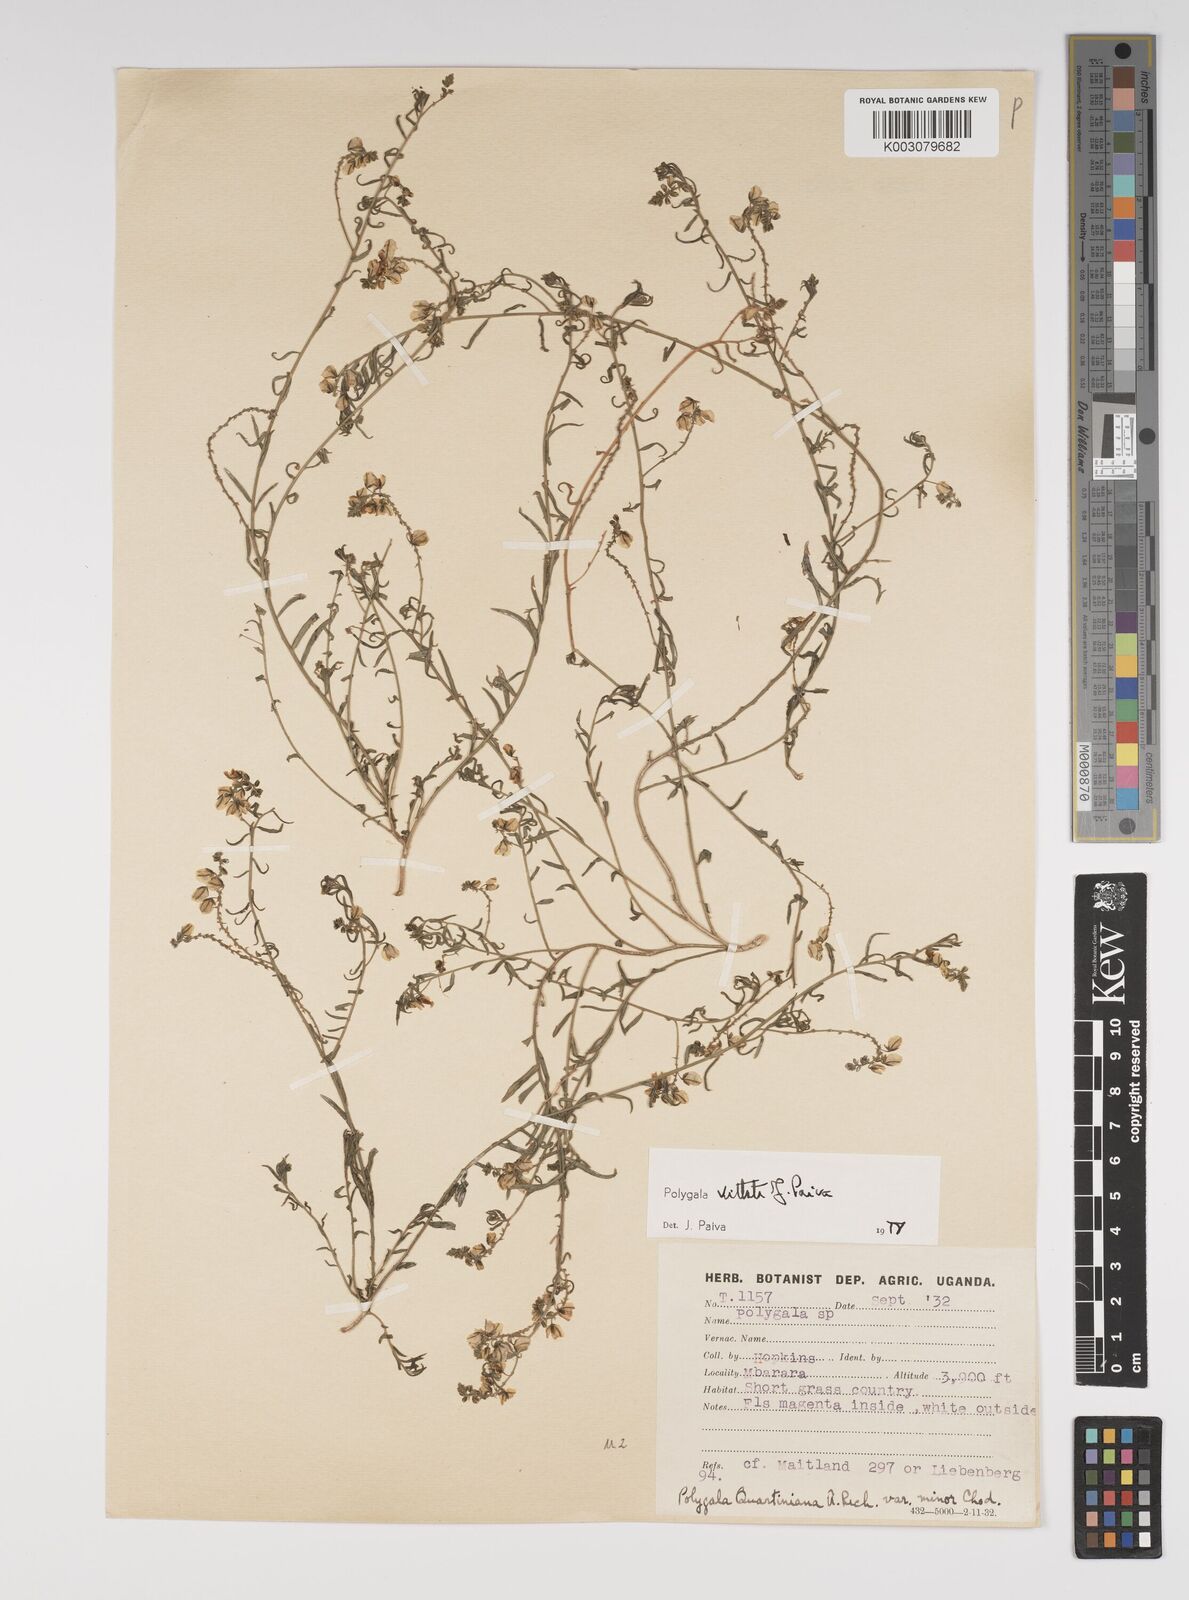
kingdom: Plantae
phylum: Tracheophyta
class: Magnoliopsida
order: Fabales
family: Polygalaceae
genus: Polygala
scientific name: Polygala vittata
